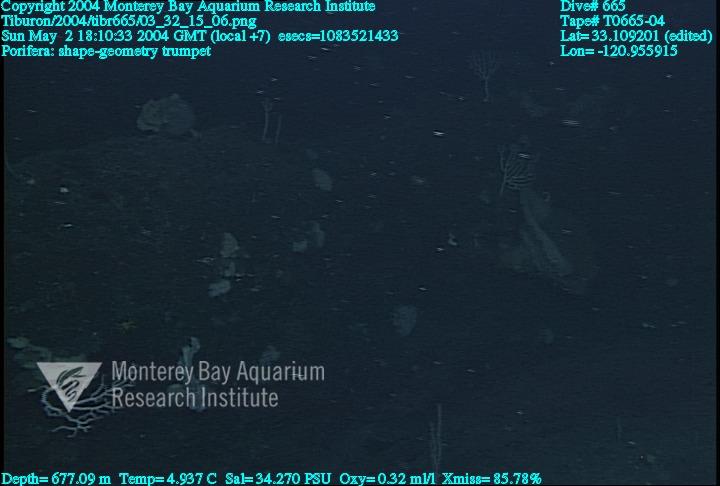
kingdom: Animalia
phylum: Porifera
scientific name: Porifera
